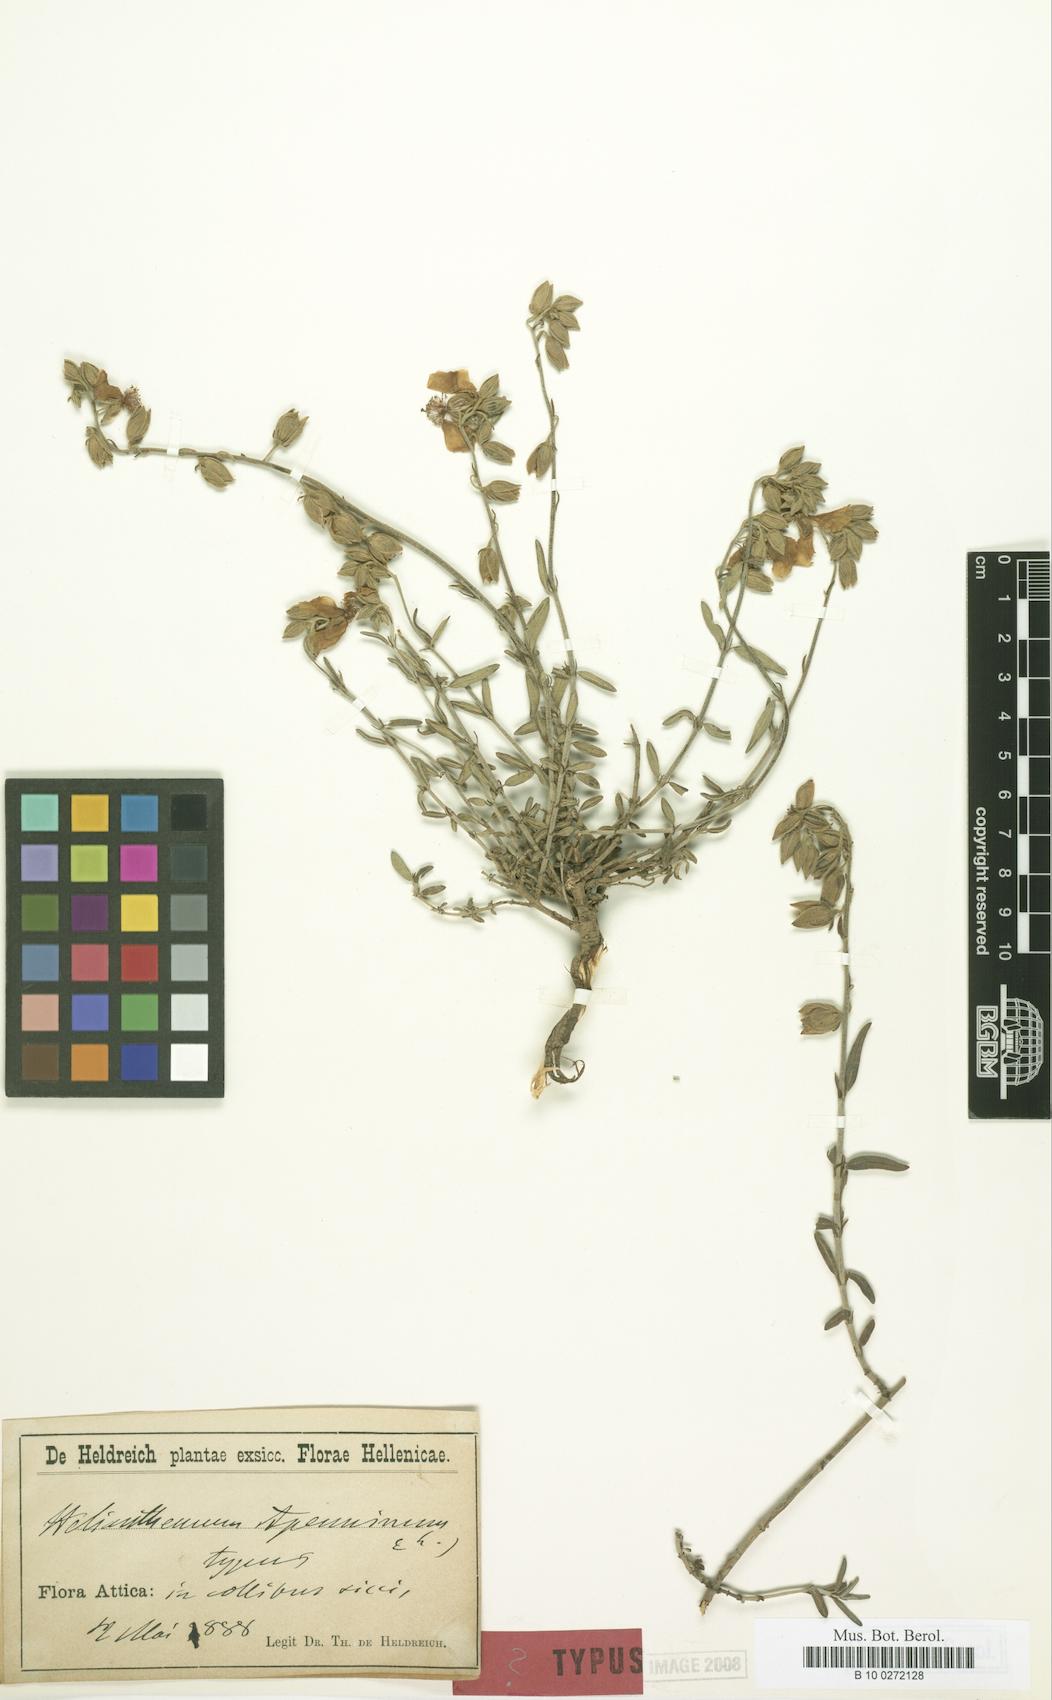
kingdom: Plantae
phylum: Tracheophyta
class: Magnoliopsida
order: Malvales
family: Cistaceae
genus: Helianthemum
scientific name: Helianthemum apenninum
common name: White rock-rose
